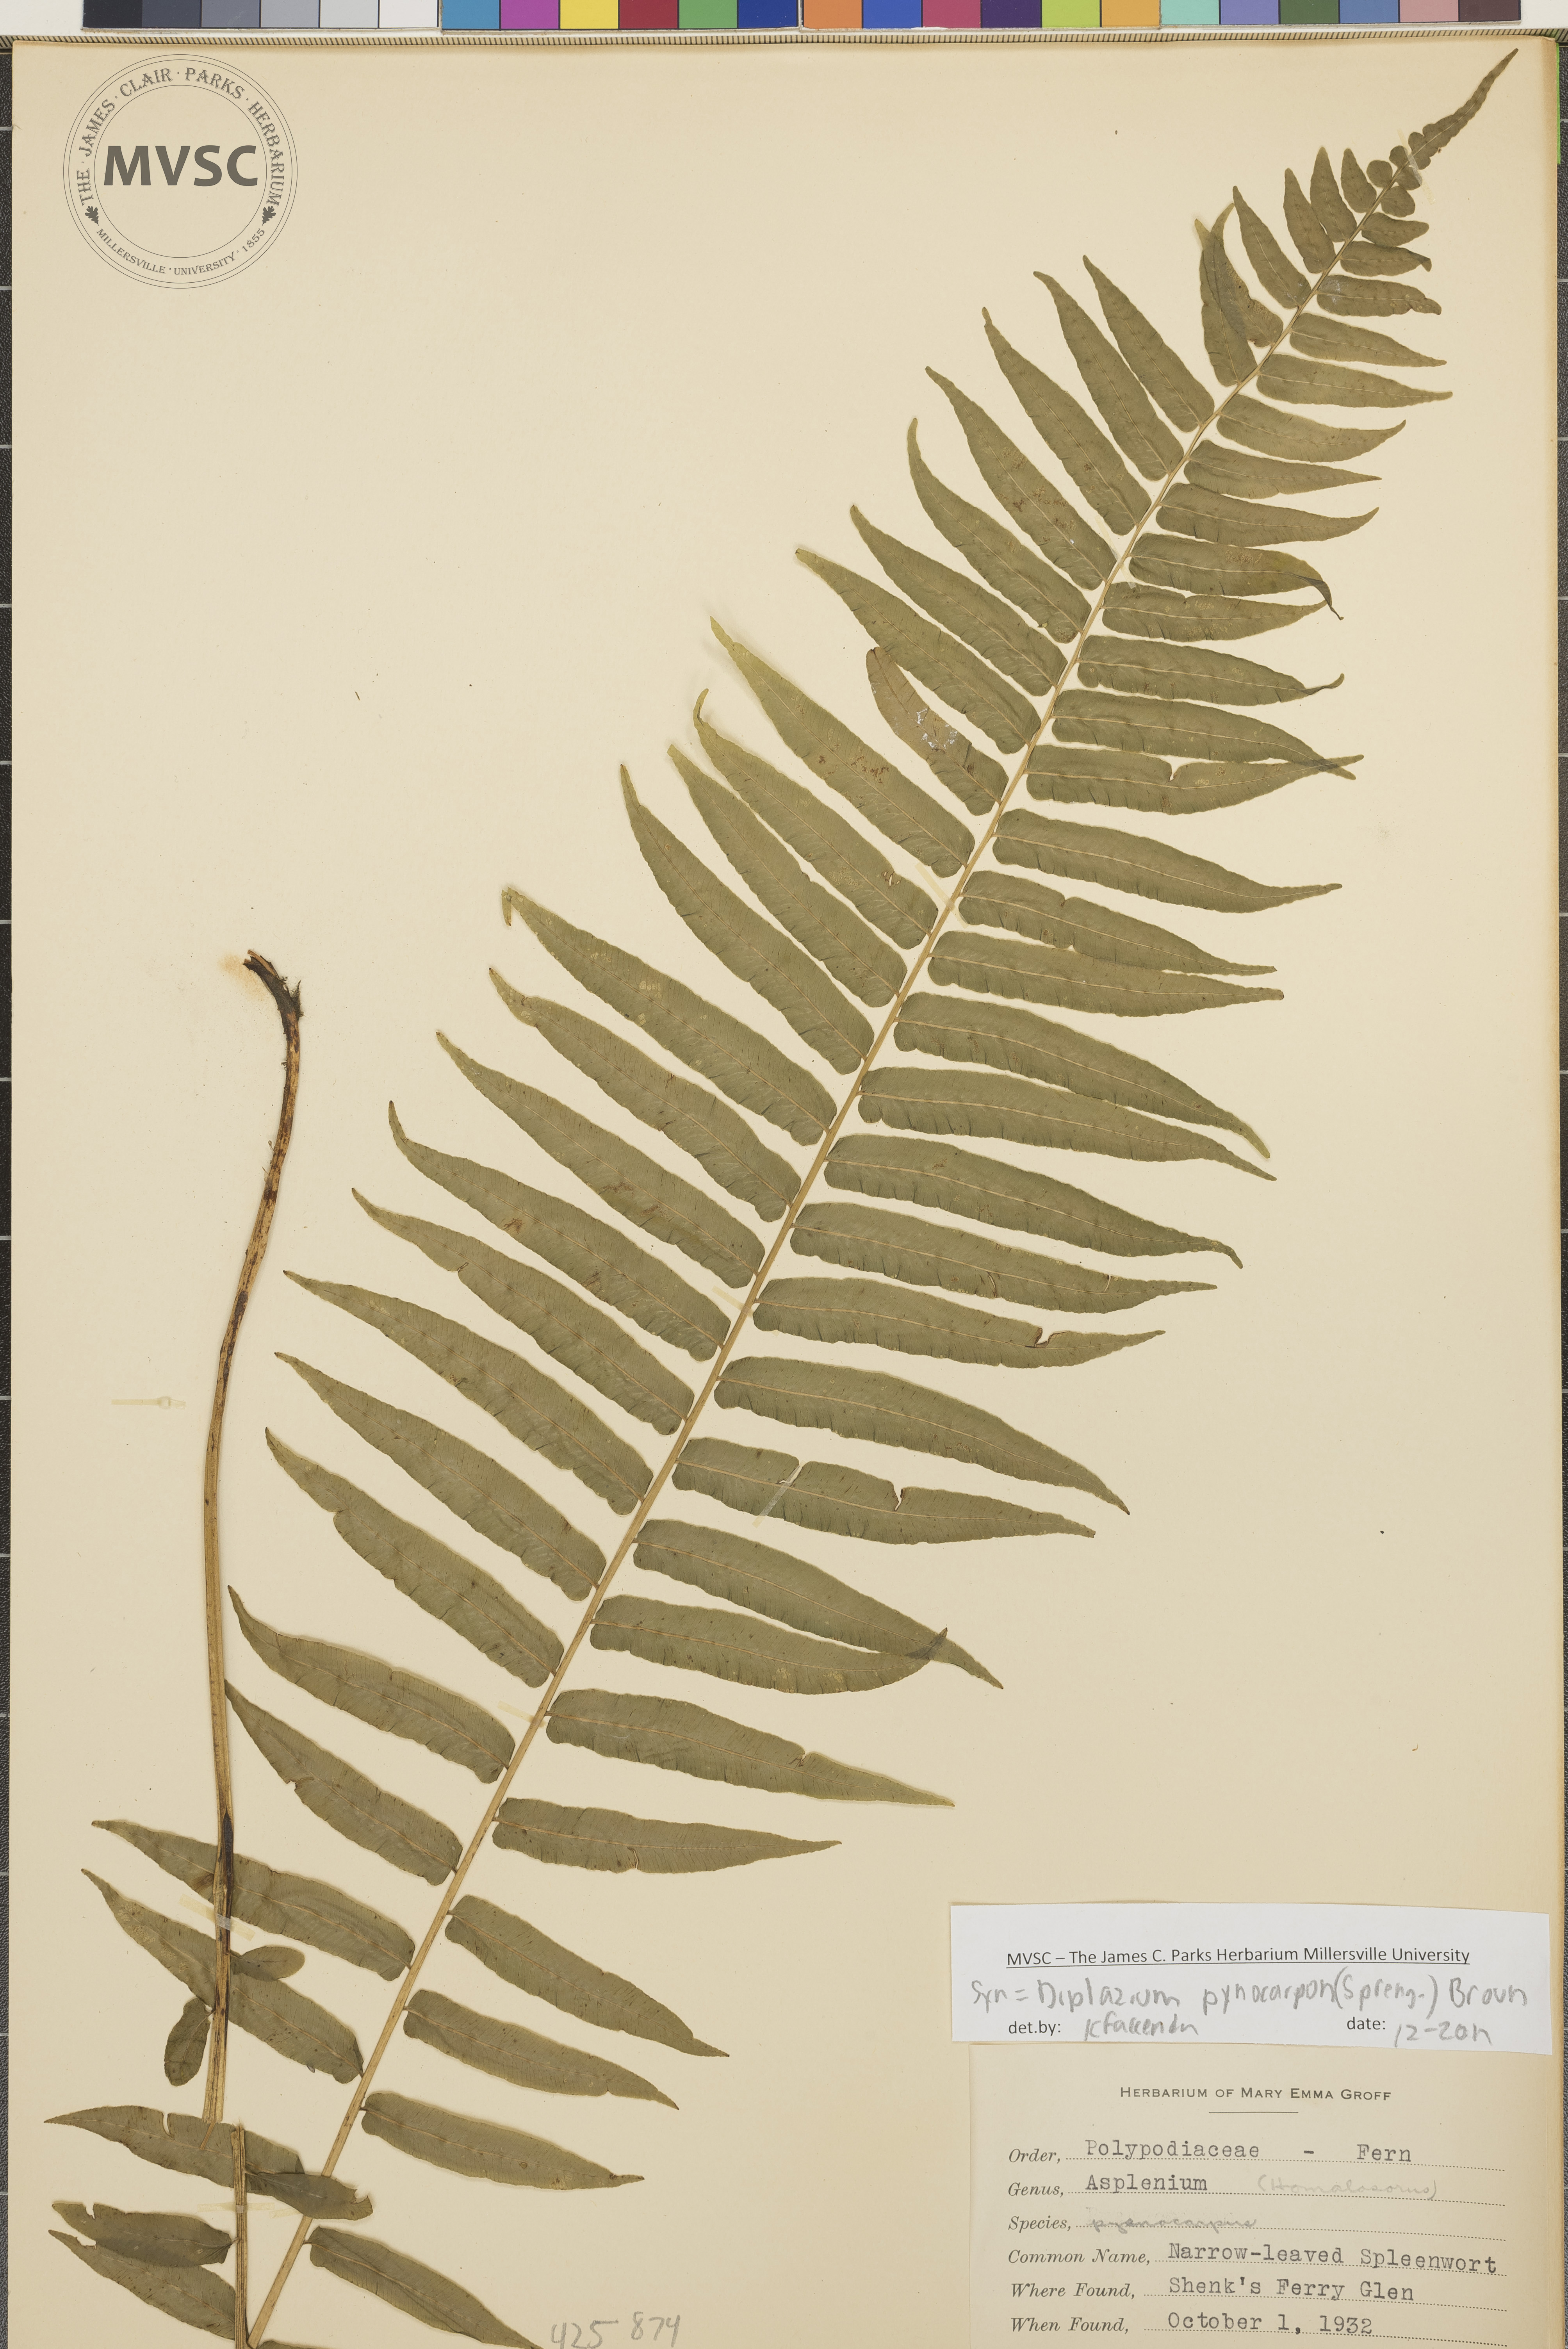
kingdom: Plantae
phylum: Tracheophyta
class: Polypodiopsida
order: Polypodiales
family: Diplaziopsidaceae
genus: Homalosorus
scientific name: Homalosorus pycnocarpos
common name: Narrow-leaved spleenwort
